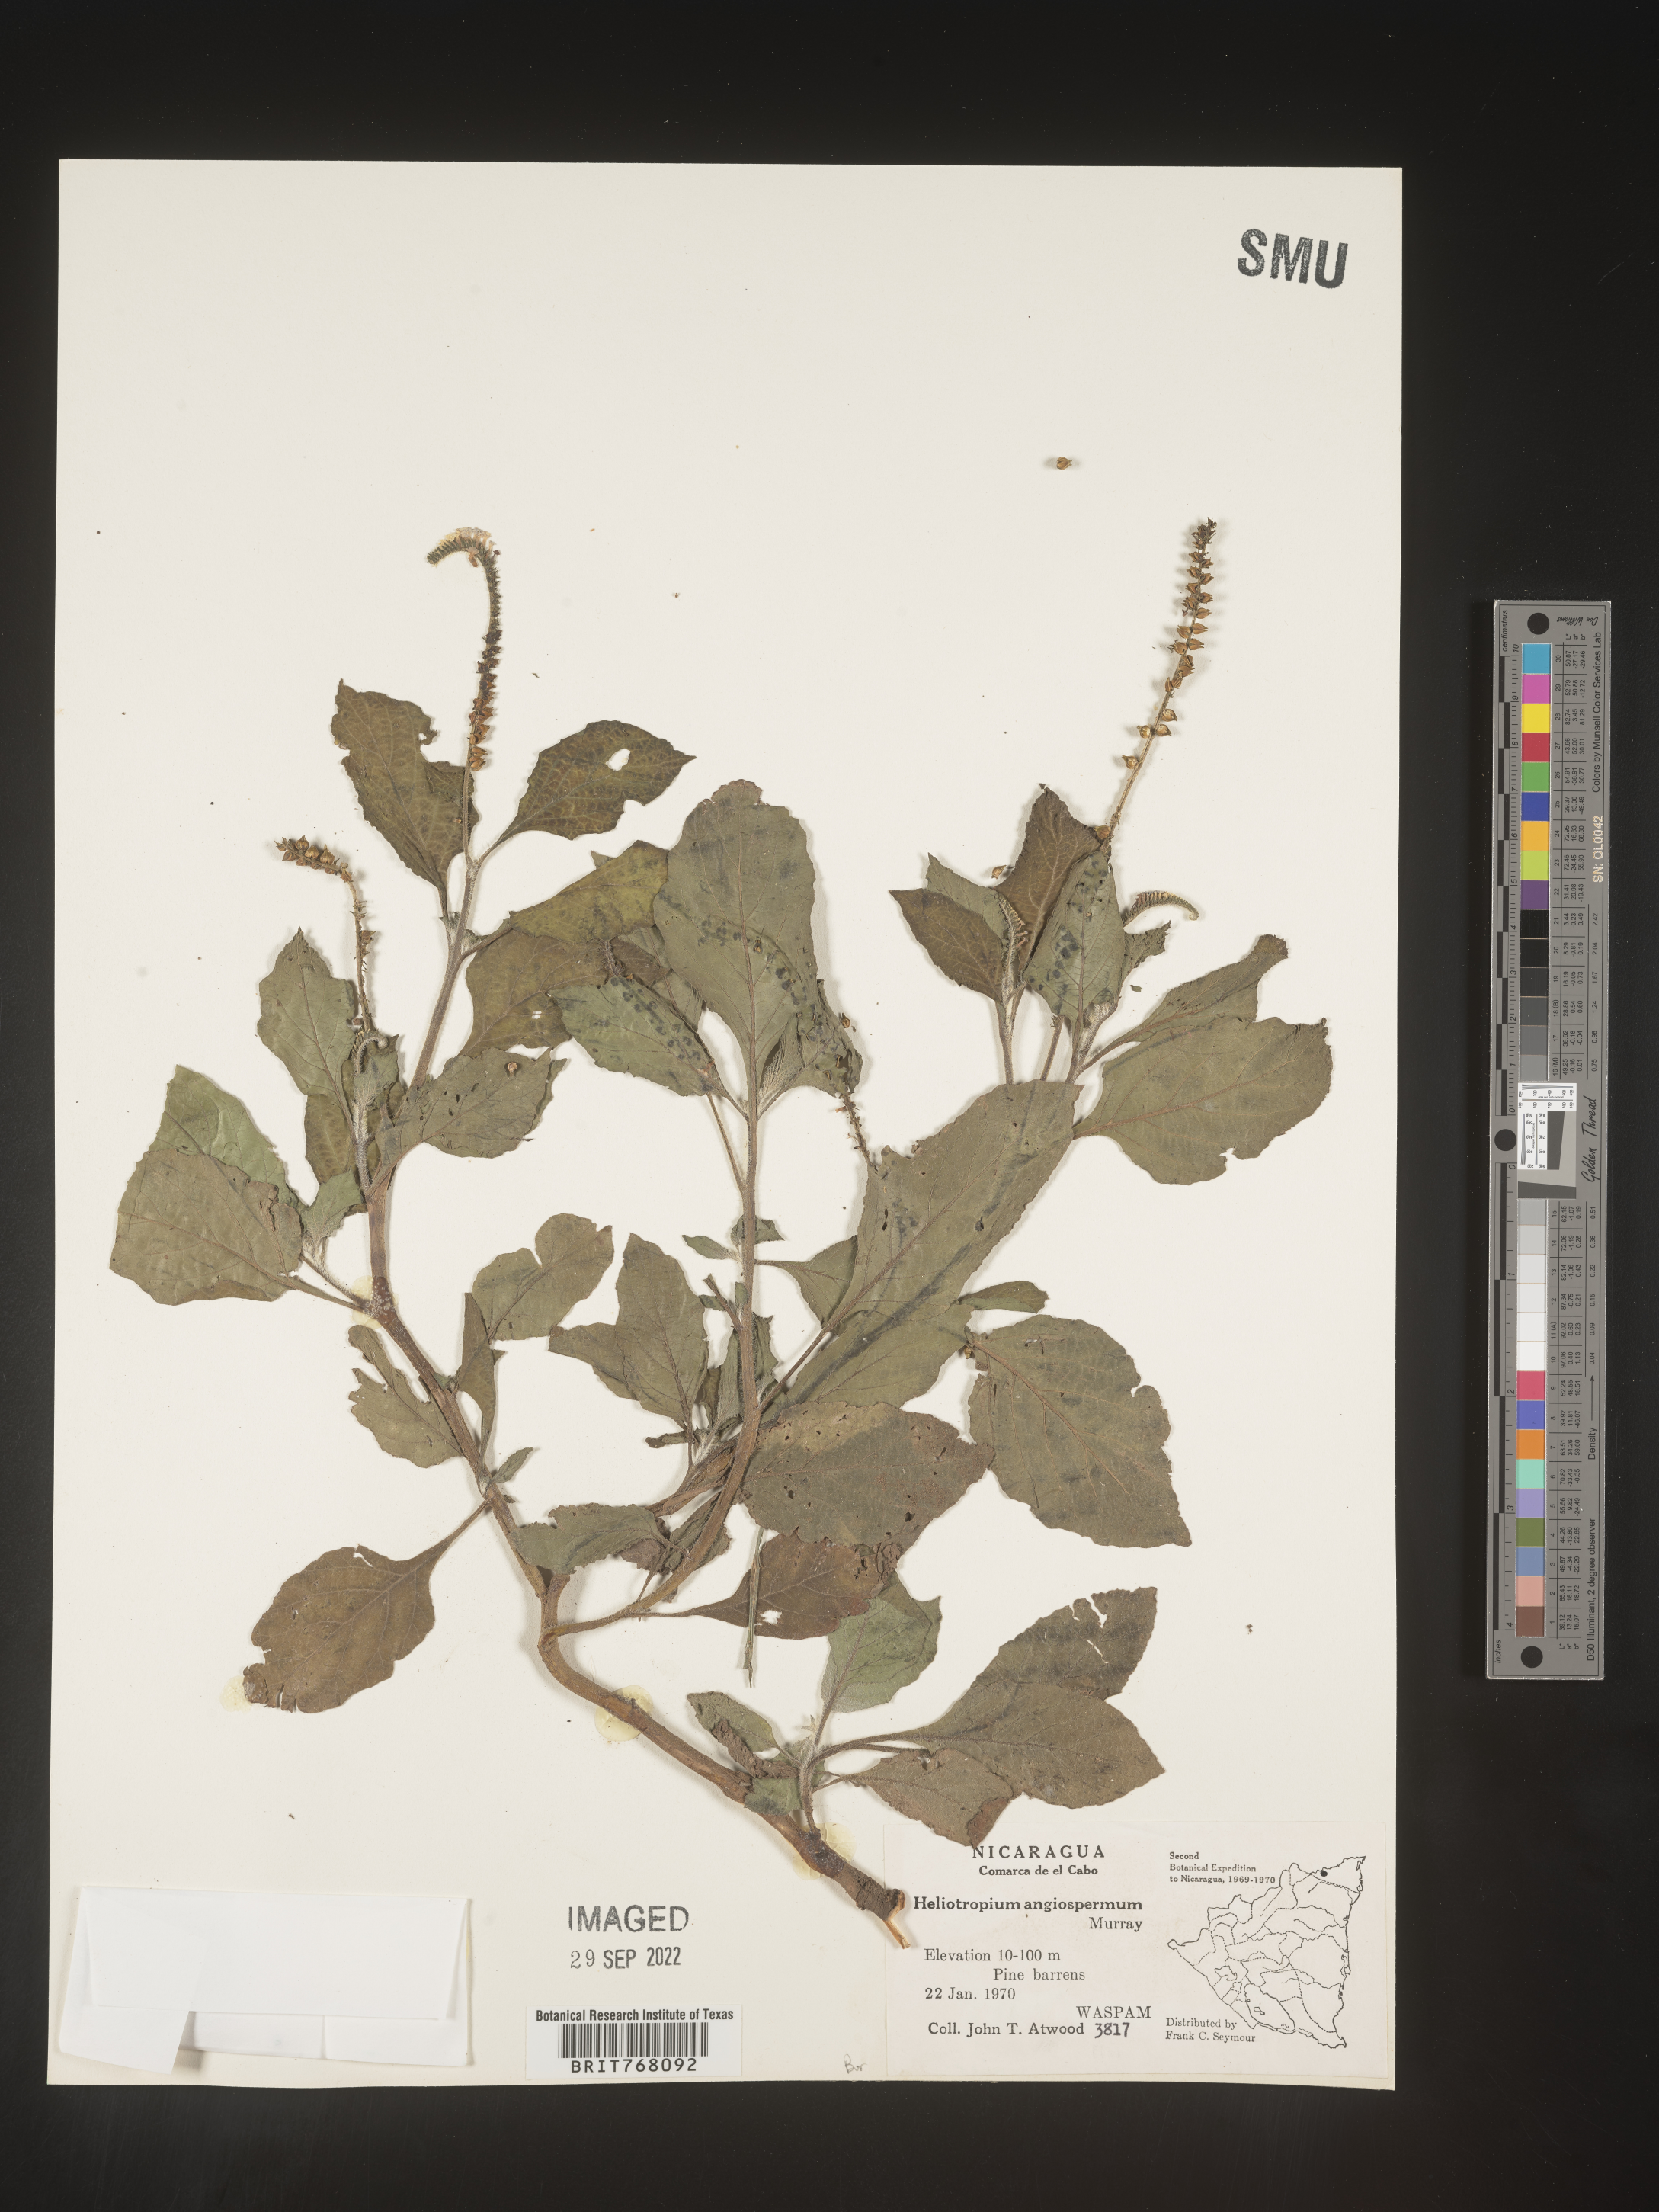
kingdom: Plantae
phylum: Tracheophyta
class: Magnoliopsida
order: Boraginales
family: Heliotropiaceae
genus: Heliotropium
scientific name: Heliotropium
